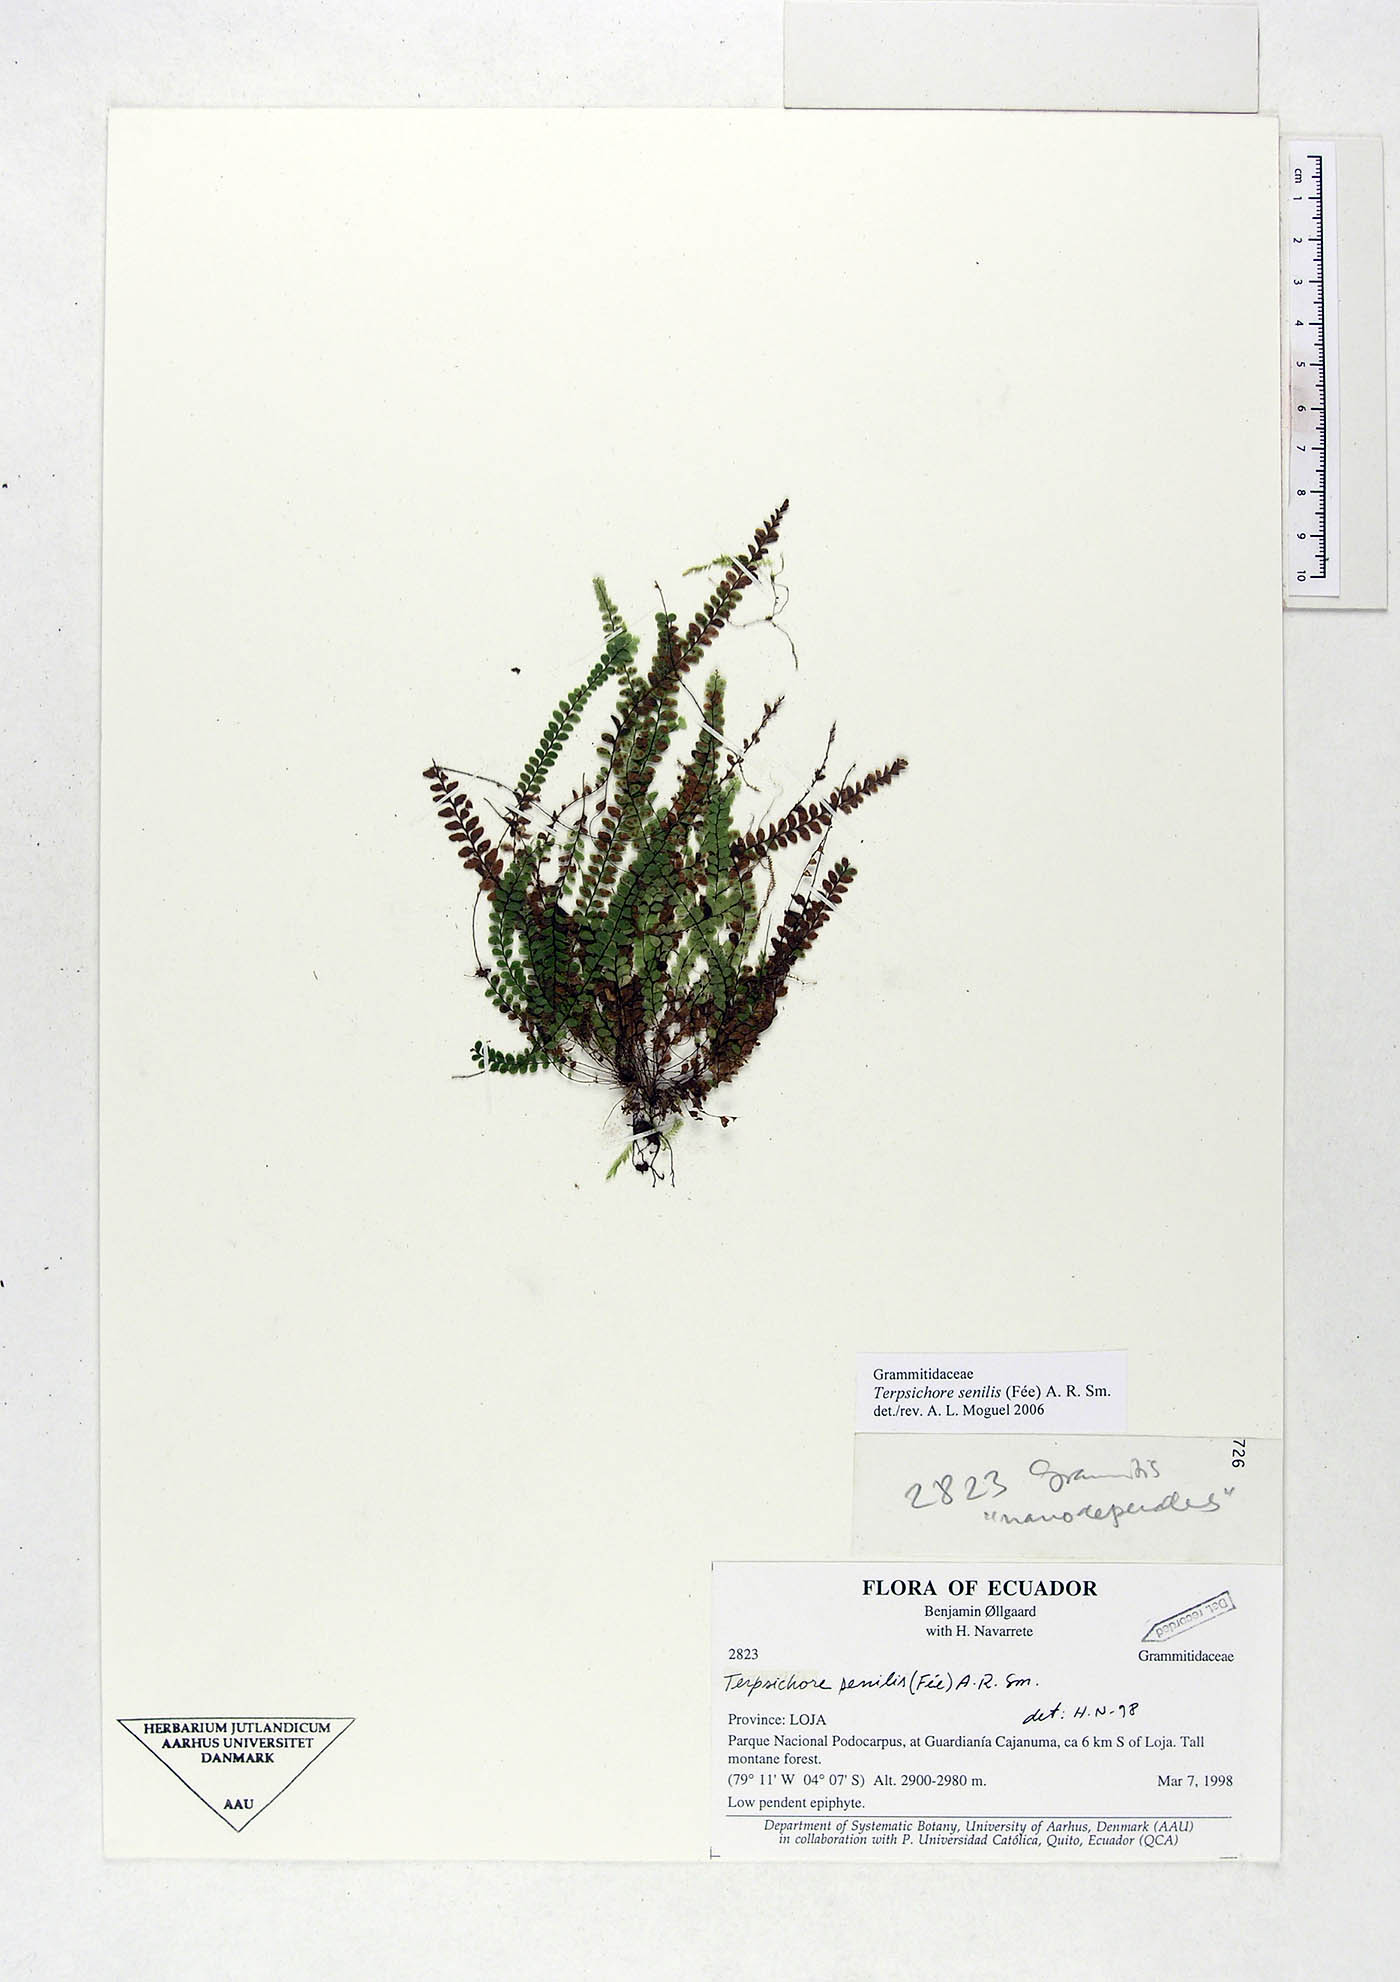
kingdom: Plantae
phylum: Tracheophyta
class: Polypodiopsida
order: Polypodiales
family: Polypodiaceae
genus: Alansmia
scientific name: Alansmia senilis
